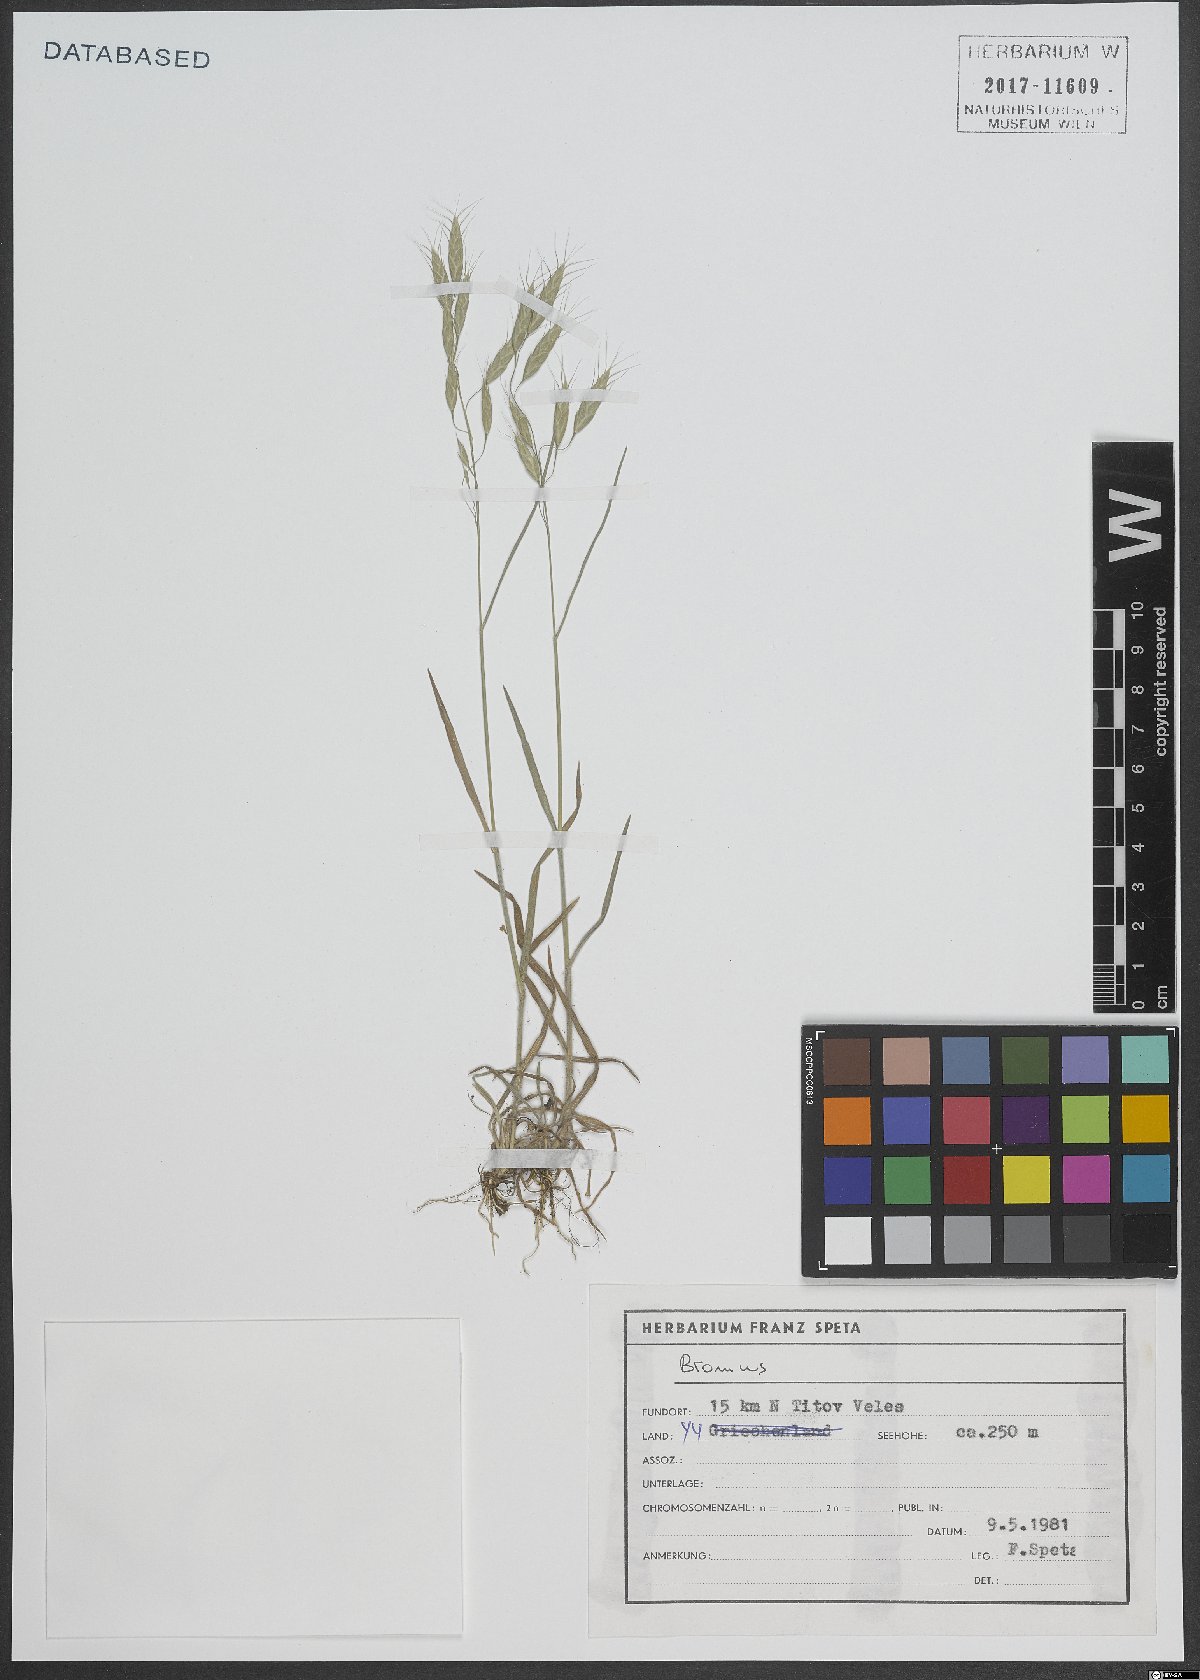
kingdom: Plantae
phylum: Tracheophyta
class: Liliopsida
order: Poales
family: Poaceae
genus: Bromus
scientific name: Bromus
